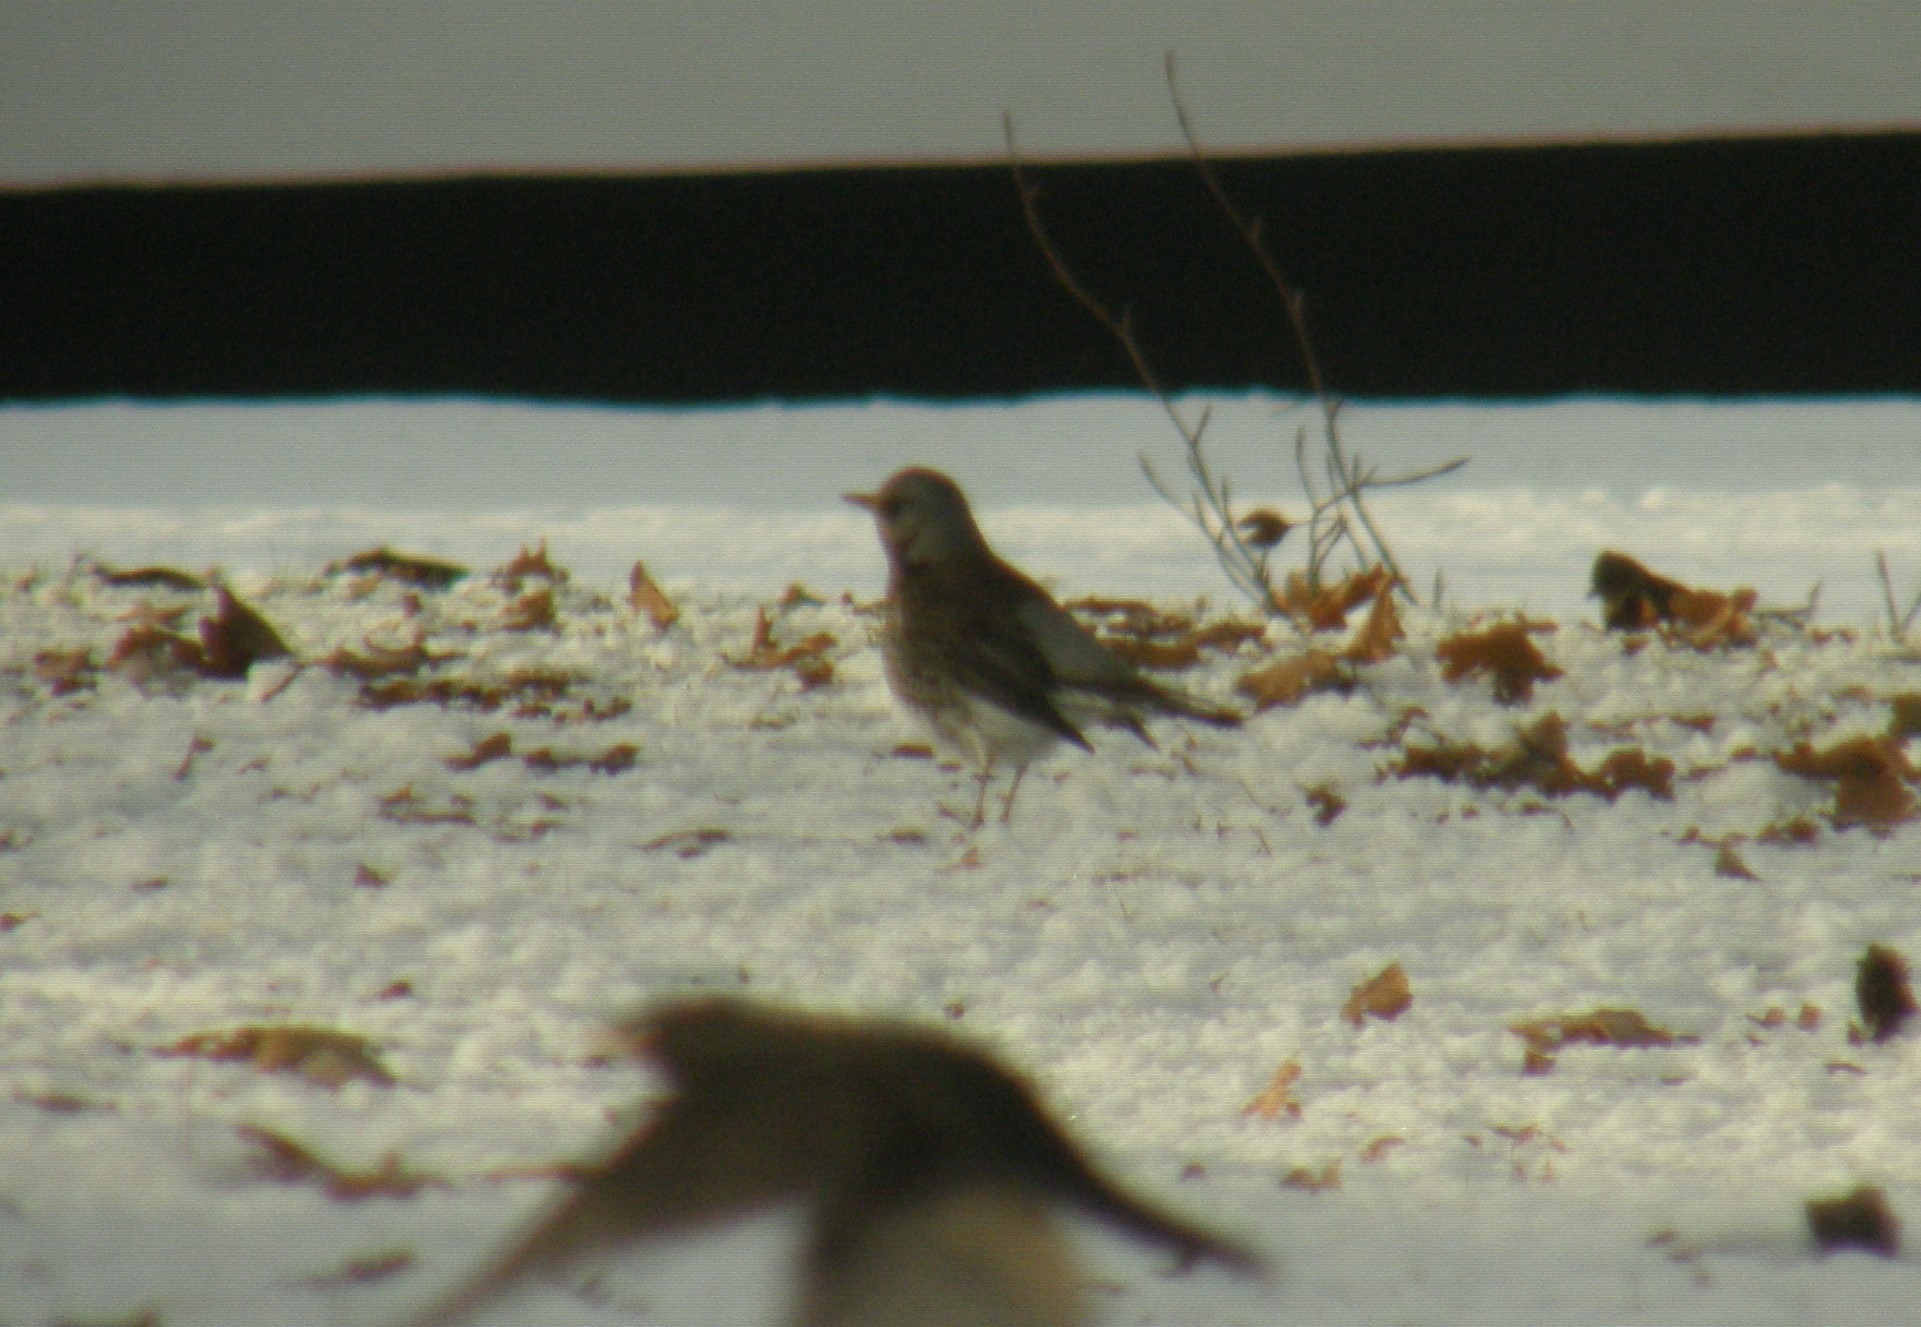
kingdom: Animalia
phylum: Chordata
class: Aves
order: Passeriformes
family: Turdidae
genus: Turdus
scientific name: Turdus pilaris
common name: Sjagger
